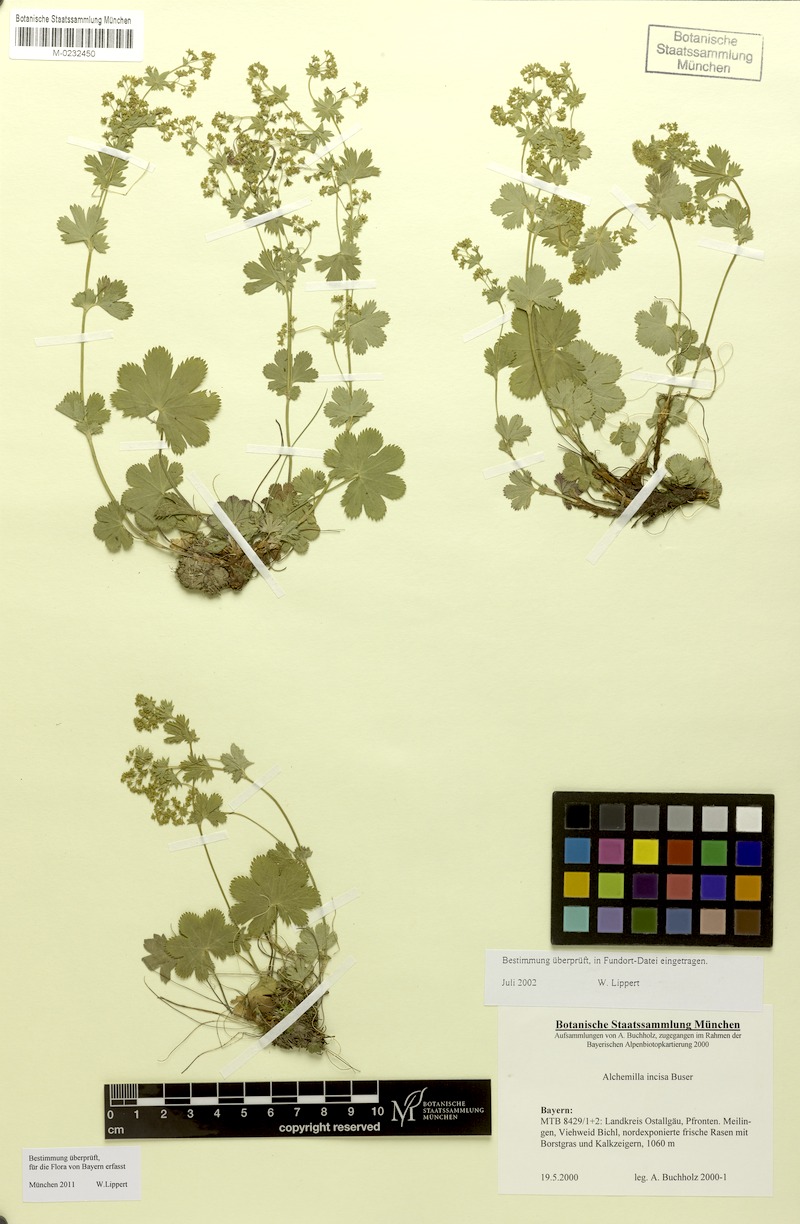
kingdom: Plantae
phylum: Tracheophyta
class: Magnoliopsida
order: Rosales
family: Rosaceae
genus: Alchemilla
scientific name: Alchemilla incisa
